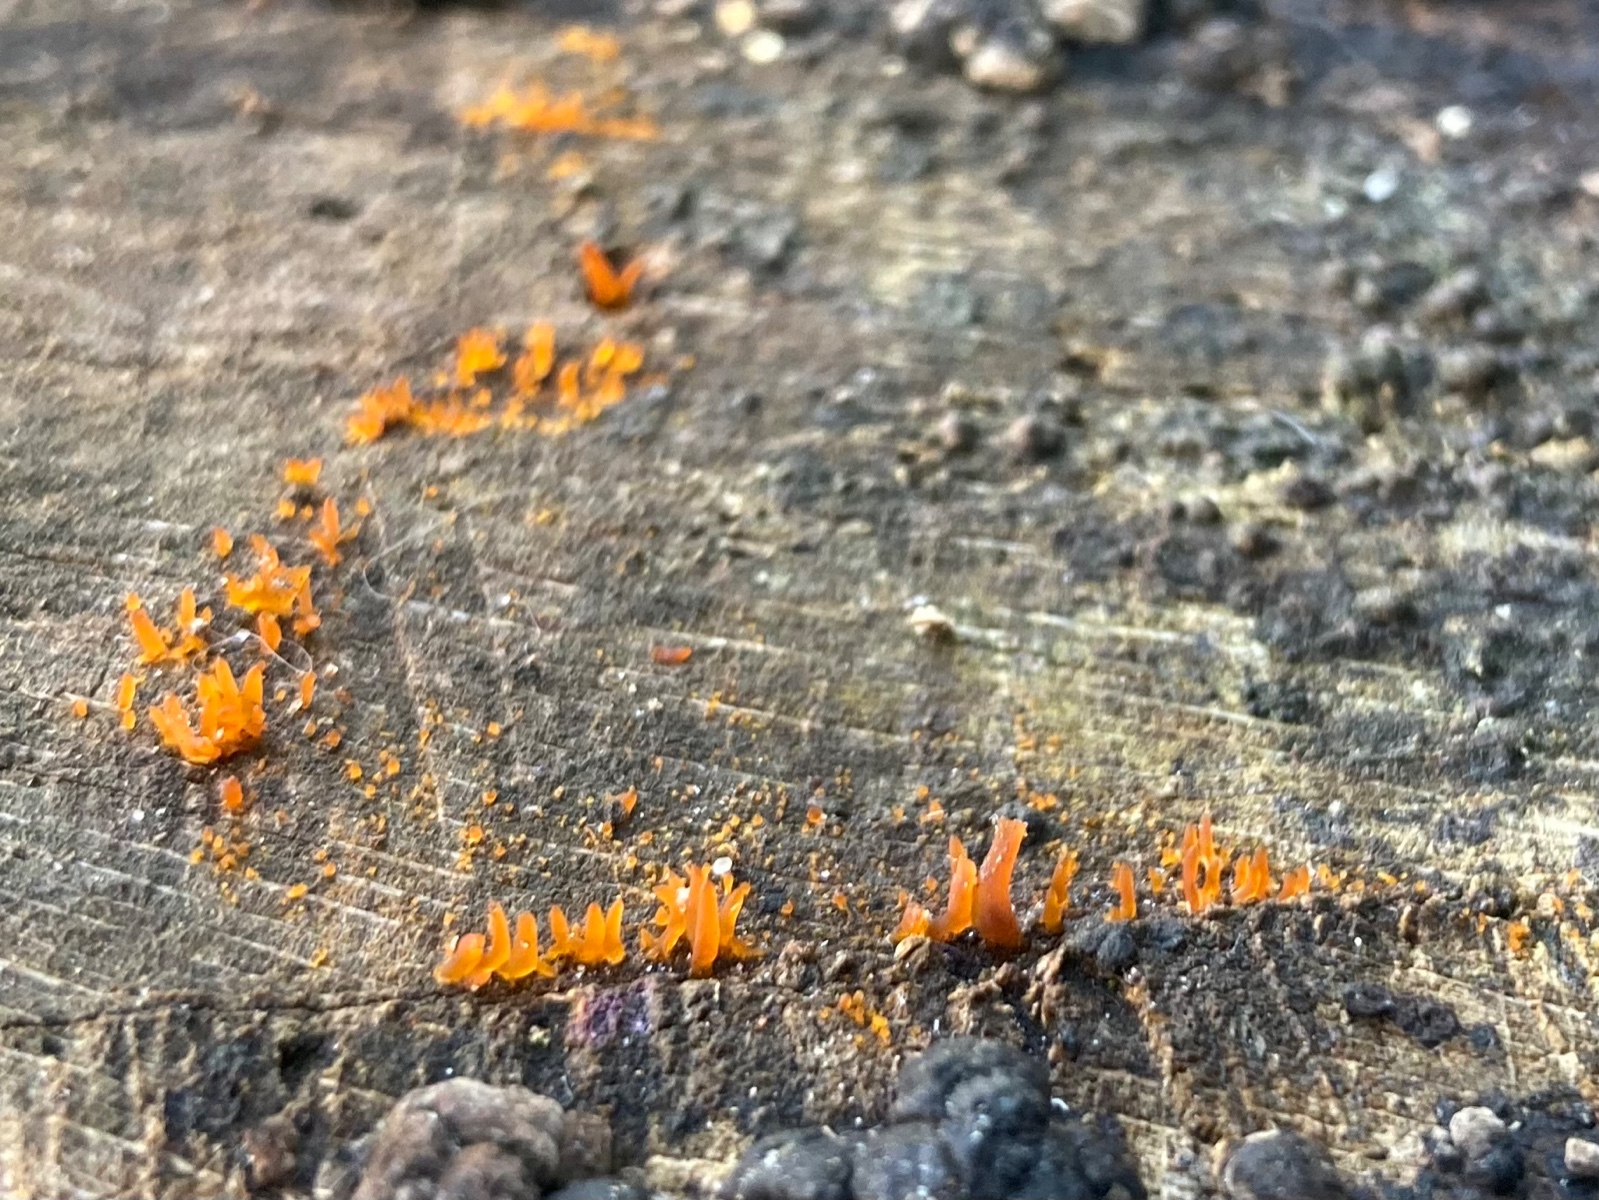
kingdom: Fungi
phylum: Basidiomycota
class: Dacrymycetes
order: Dacrymycetales
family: Dacrymycetaceae
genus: Calocera
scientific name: Calocera cornea
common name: liden guldgaffel
